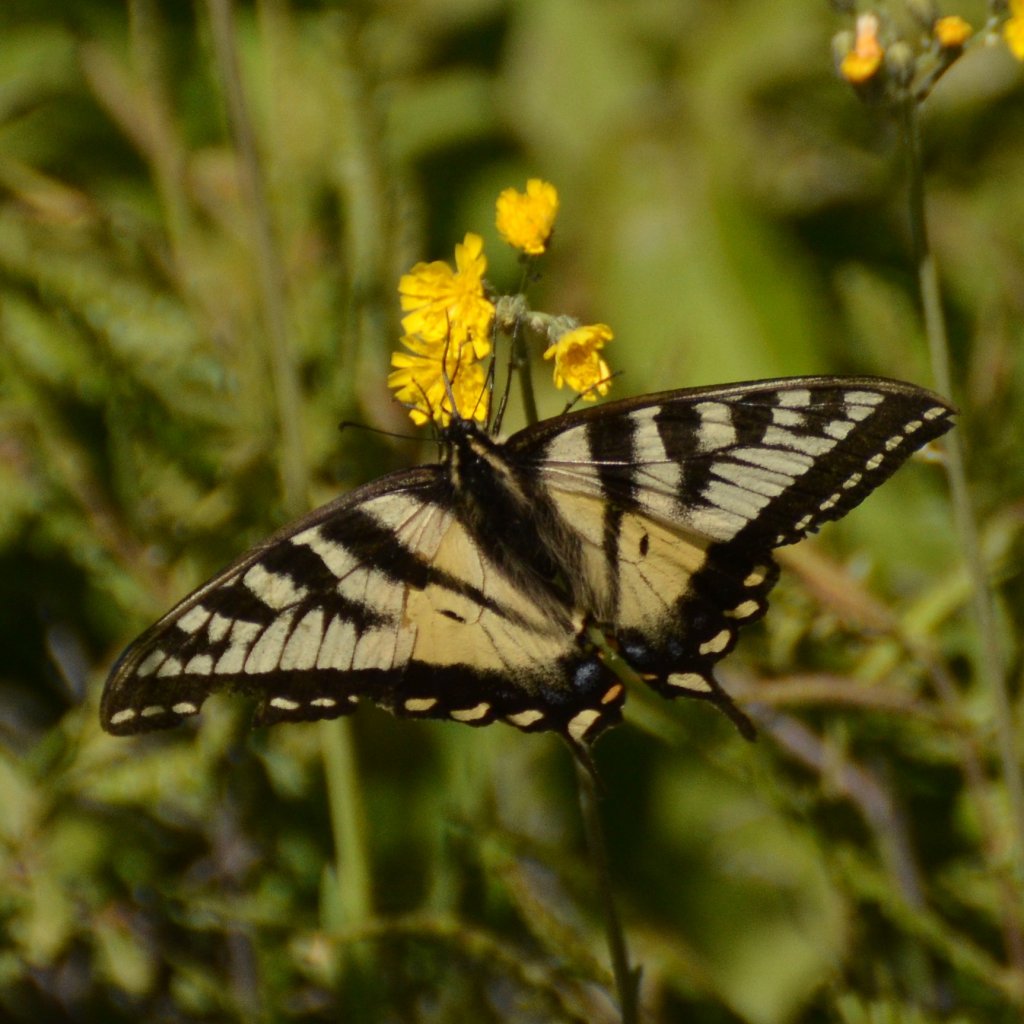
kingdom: Animalia
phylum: Arthropoda
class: Insecta
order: Lepidoptera
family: Papilionidae
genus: Pterourus
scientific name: Pterourus canadensis
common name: Canadian Tiger Swallowtail
